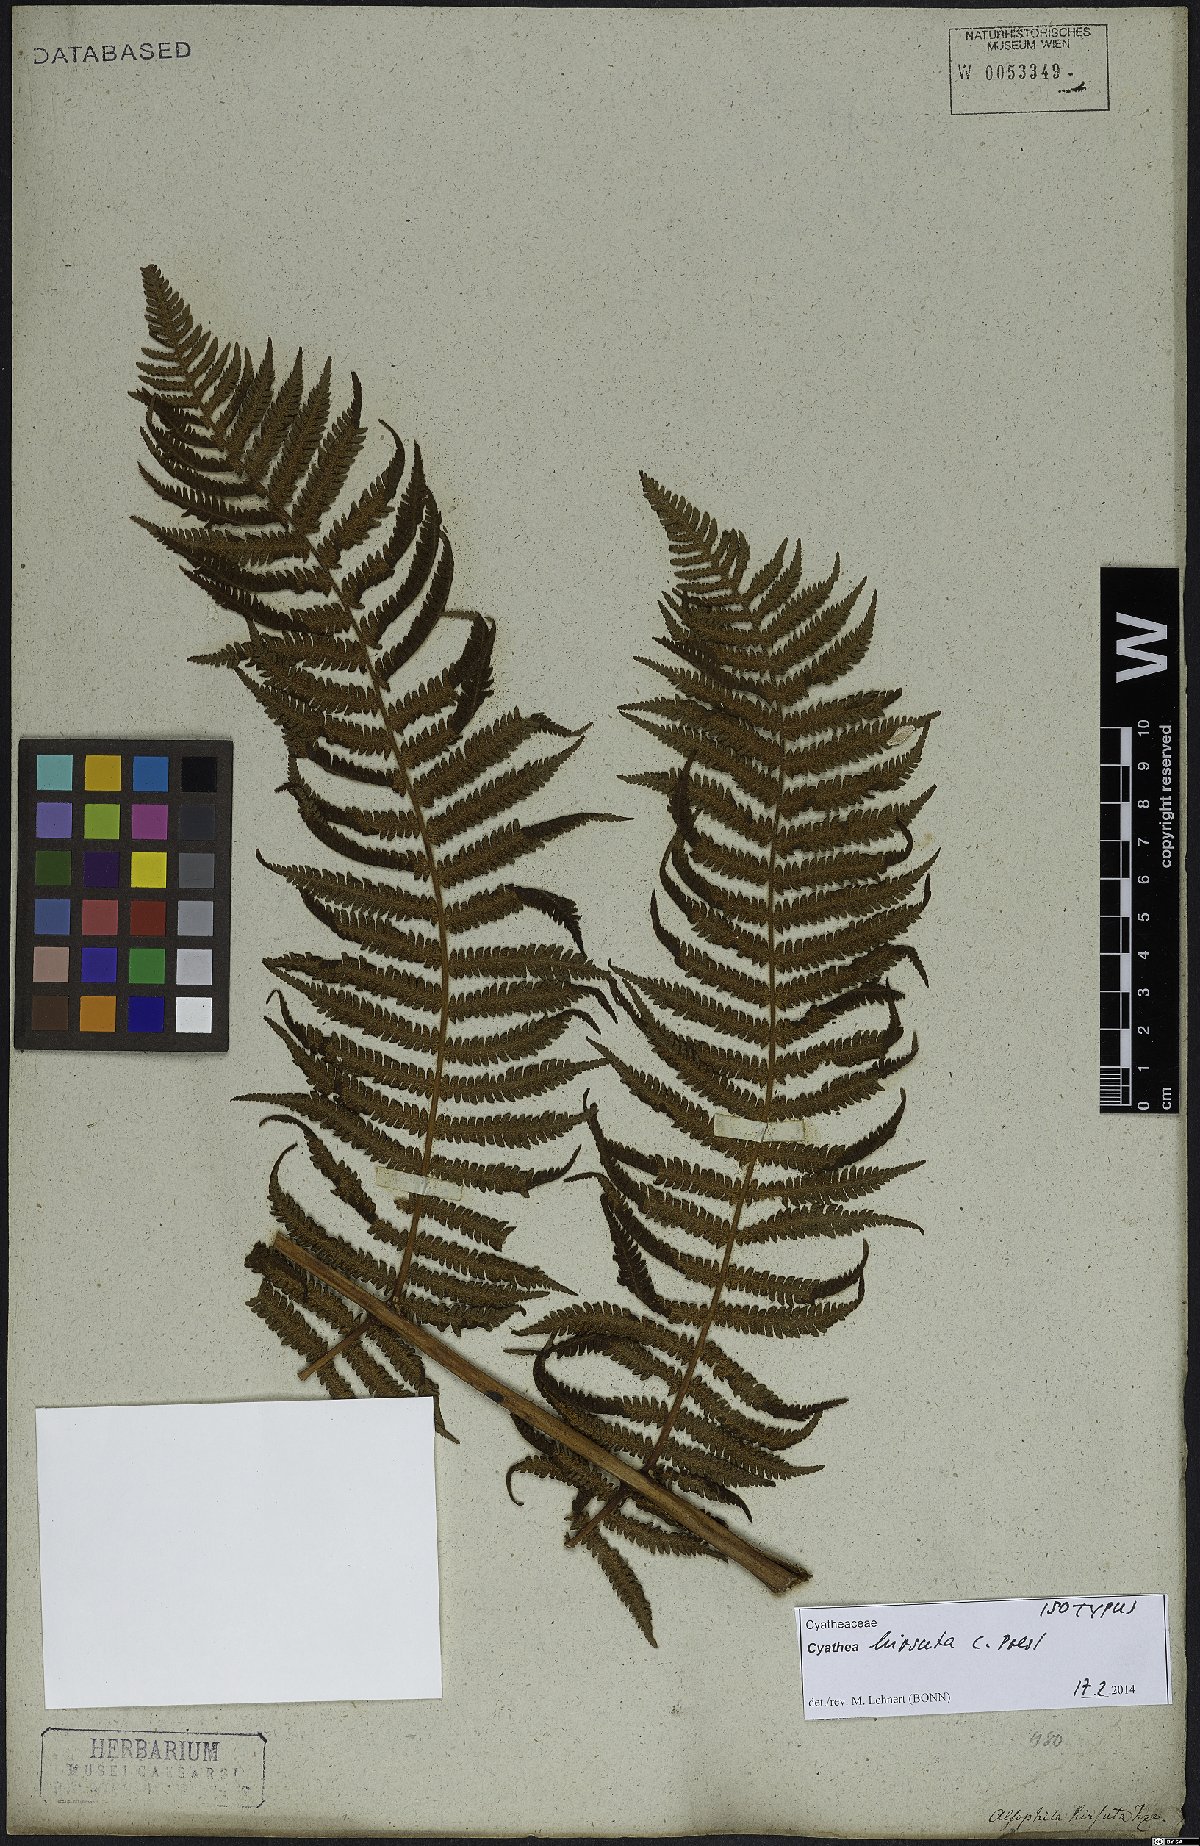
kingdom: Plantae
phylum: Tracheophyta
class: Polypodiopsida
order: Cyatheales
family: Cyatheaceae
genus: Cyathea
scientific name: Cyathea hirsuta
